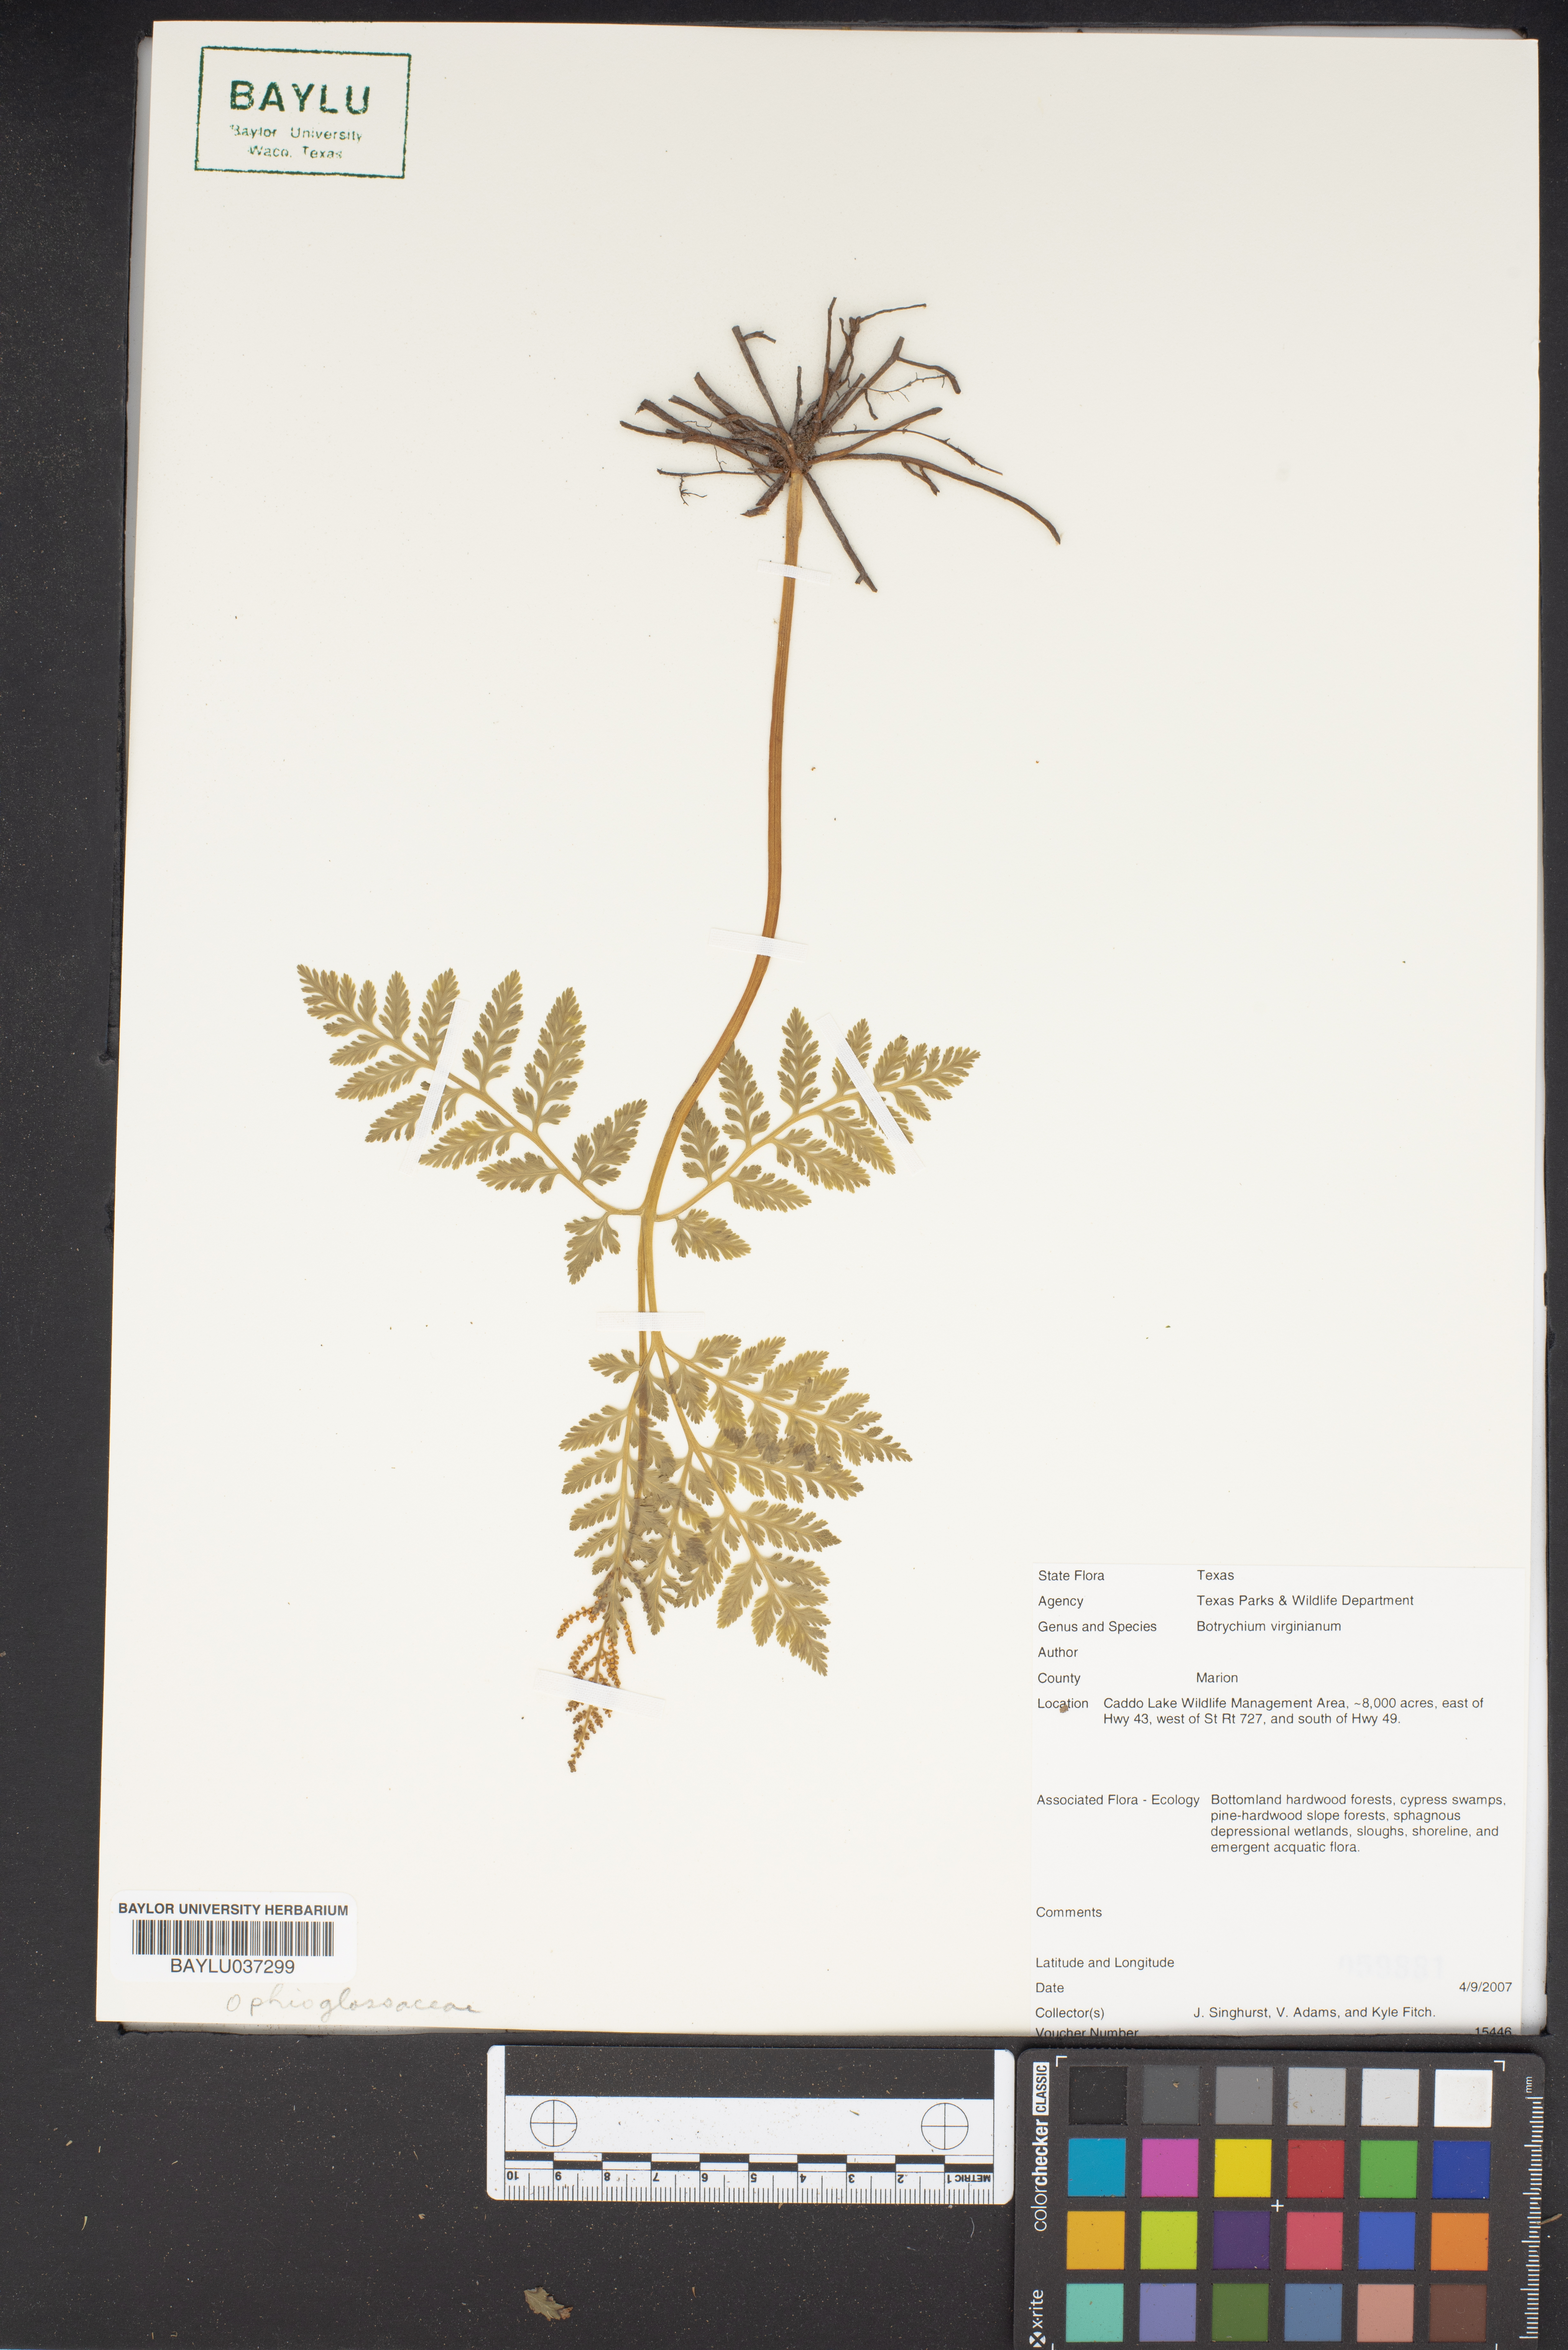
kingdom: Plantae
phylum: Tracheophyta
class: Polypodiopsida
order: Ophioglossales
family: Ophioglossaceae
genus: Botrypus
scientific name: Botrypus virginianus
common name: Common grapefern
